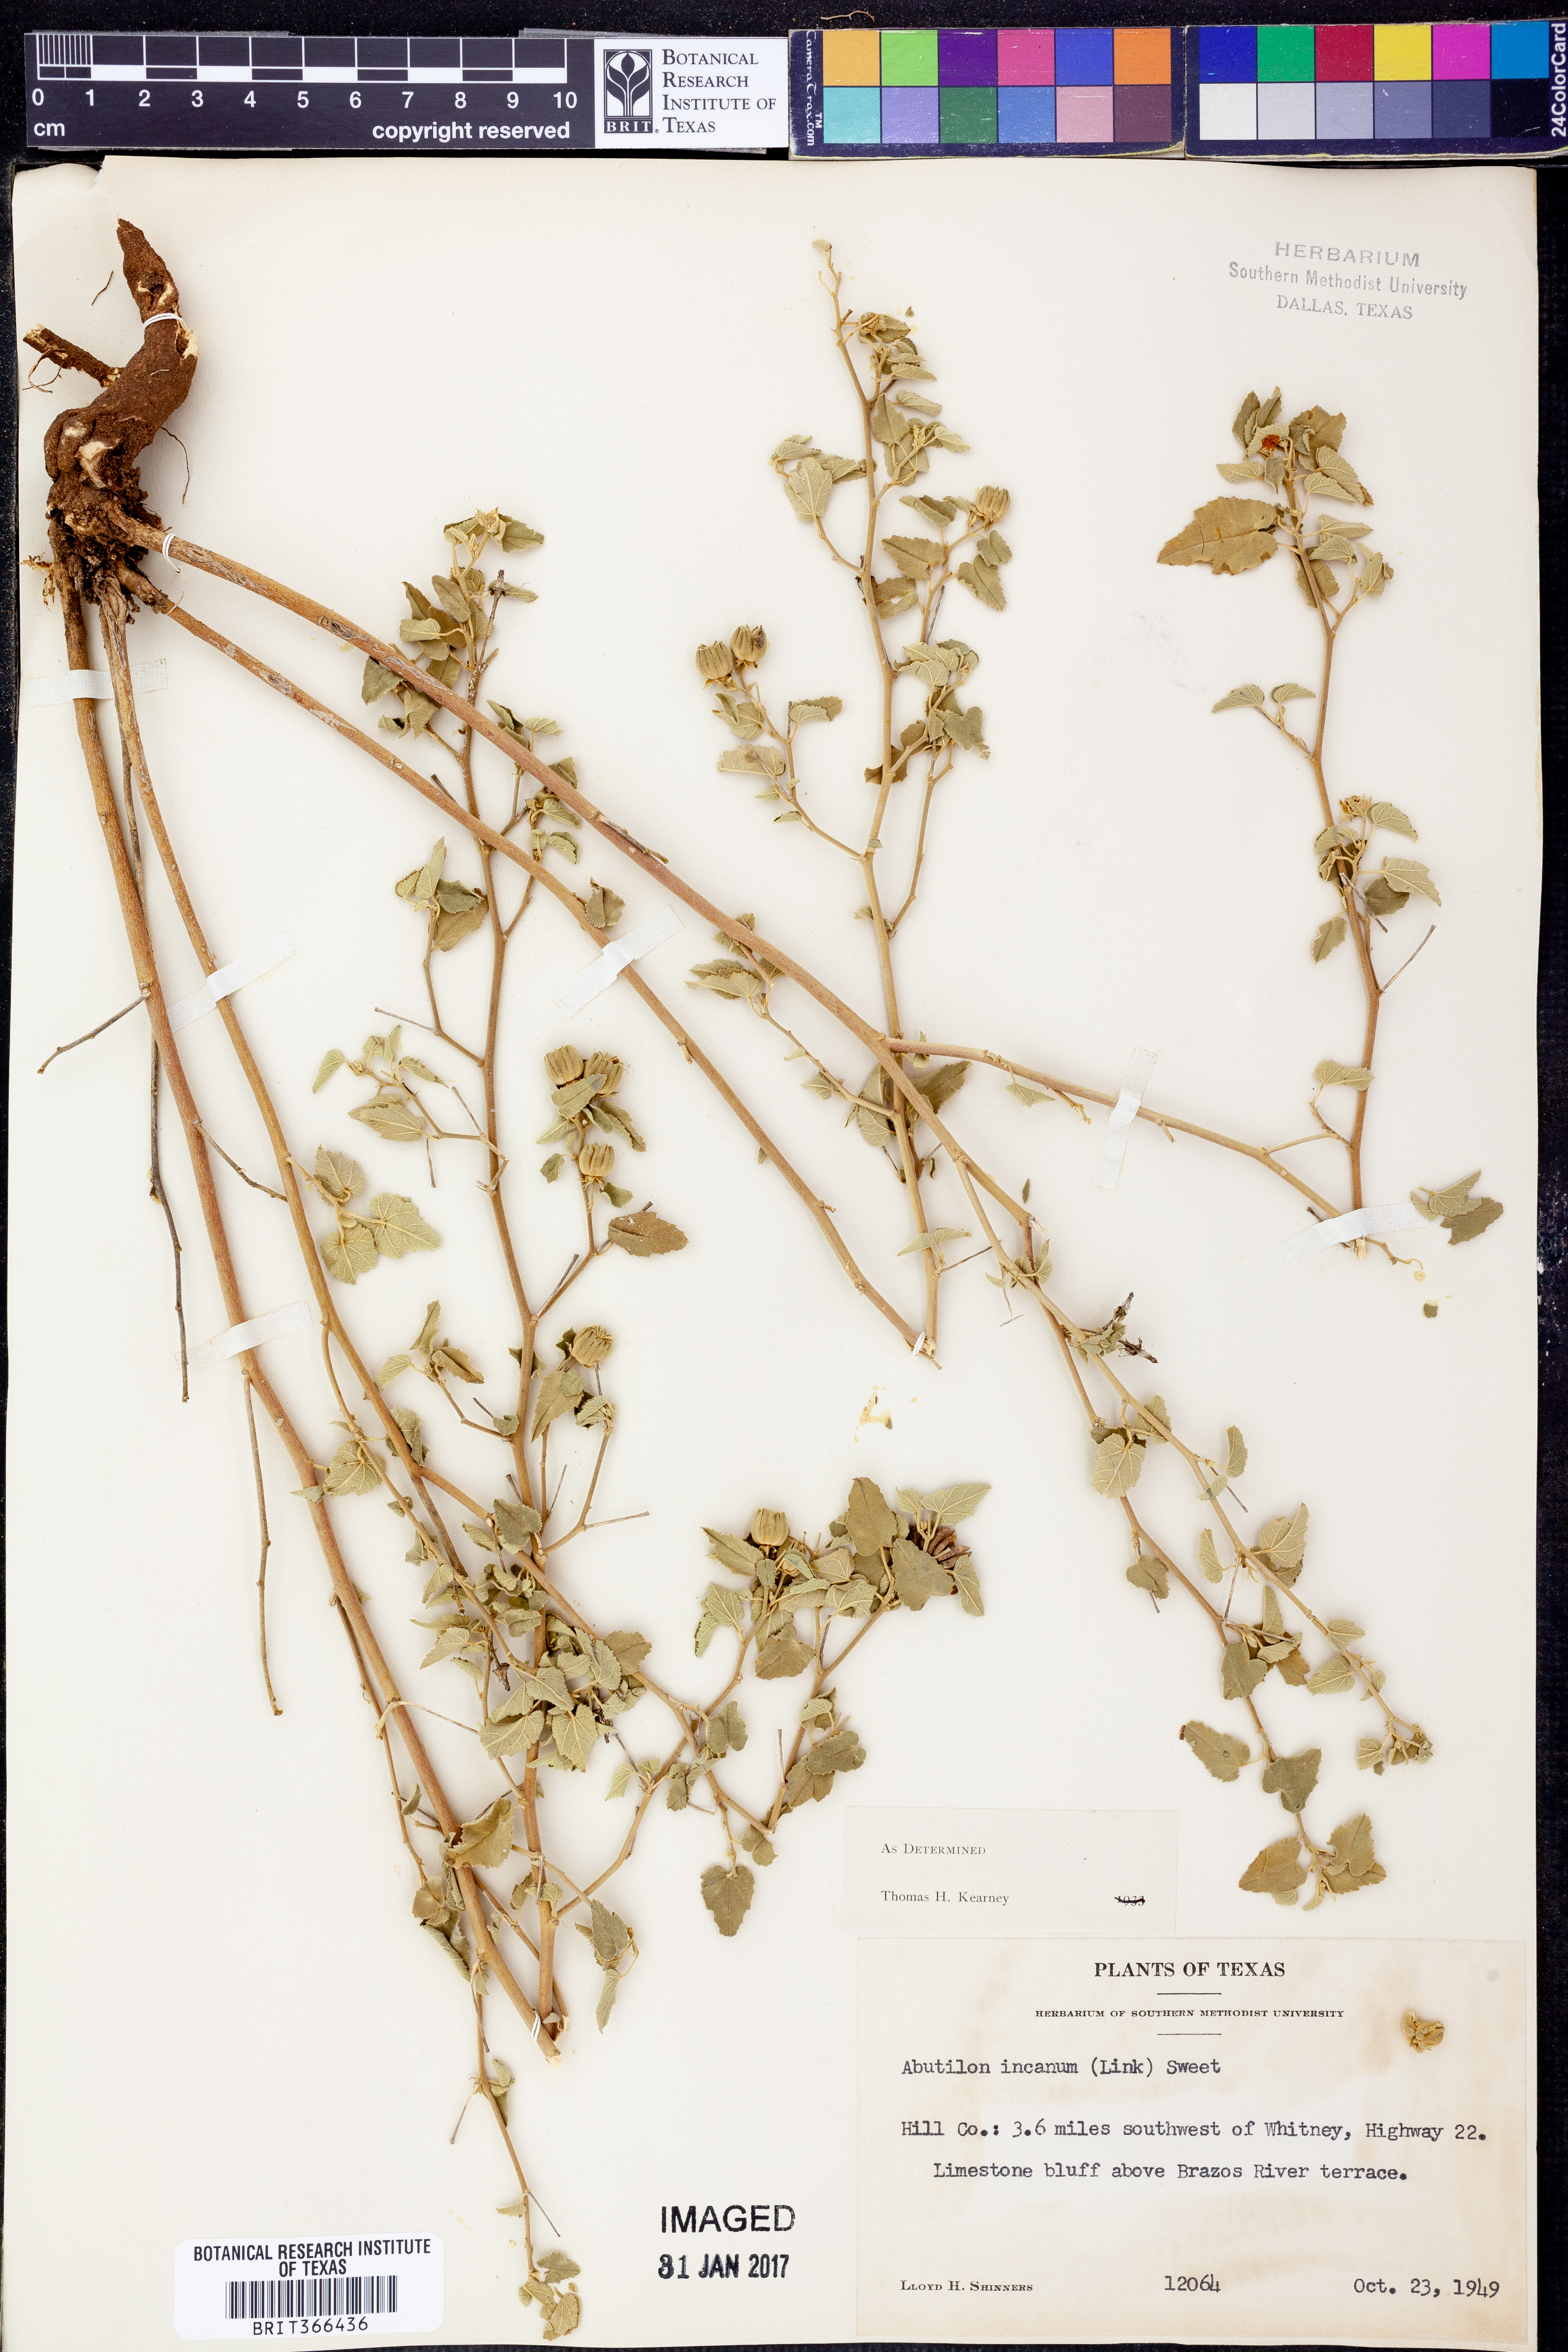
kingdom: Plantae
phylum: Tracheophyta
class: Magnoliopsida
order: Malvales
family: Malvaceae
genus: Abutilon
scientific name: Abutilon incanum
